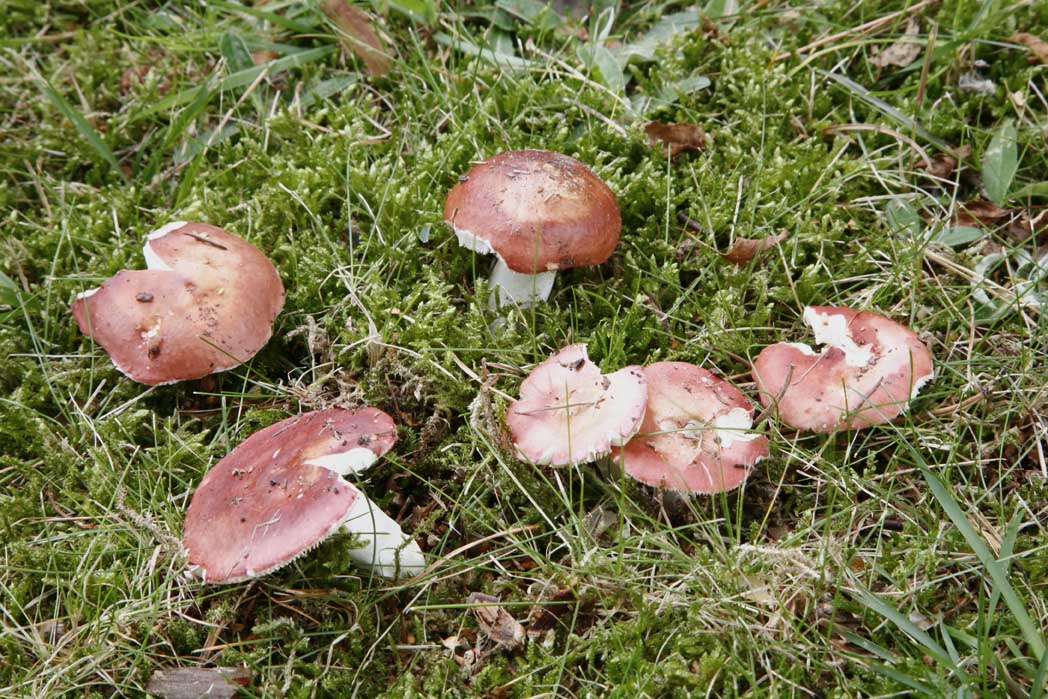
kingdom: Fungi
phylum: Basidiomycota
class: Agaricomycetes
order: Russulales
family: Russulaceae
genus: Russula
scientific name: Russula velenovskyi
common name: orangerød skørhat
